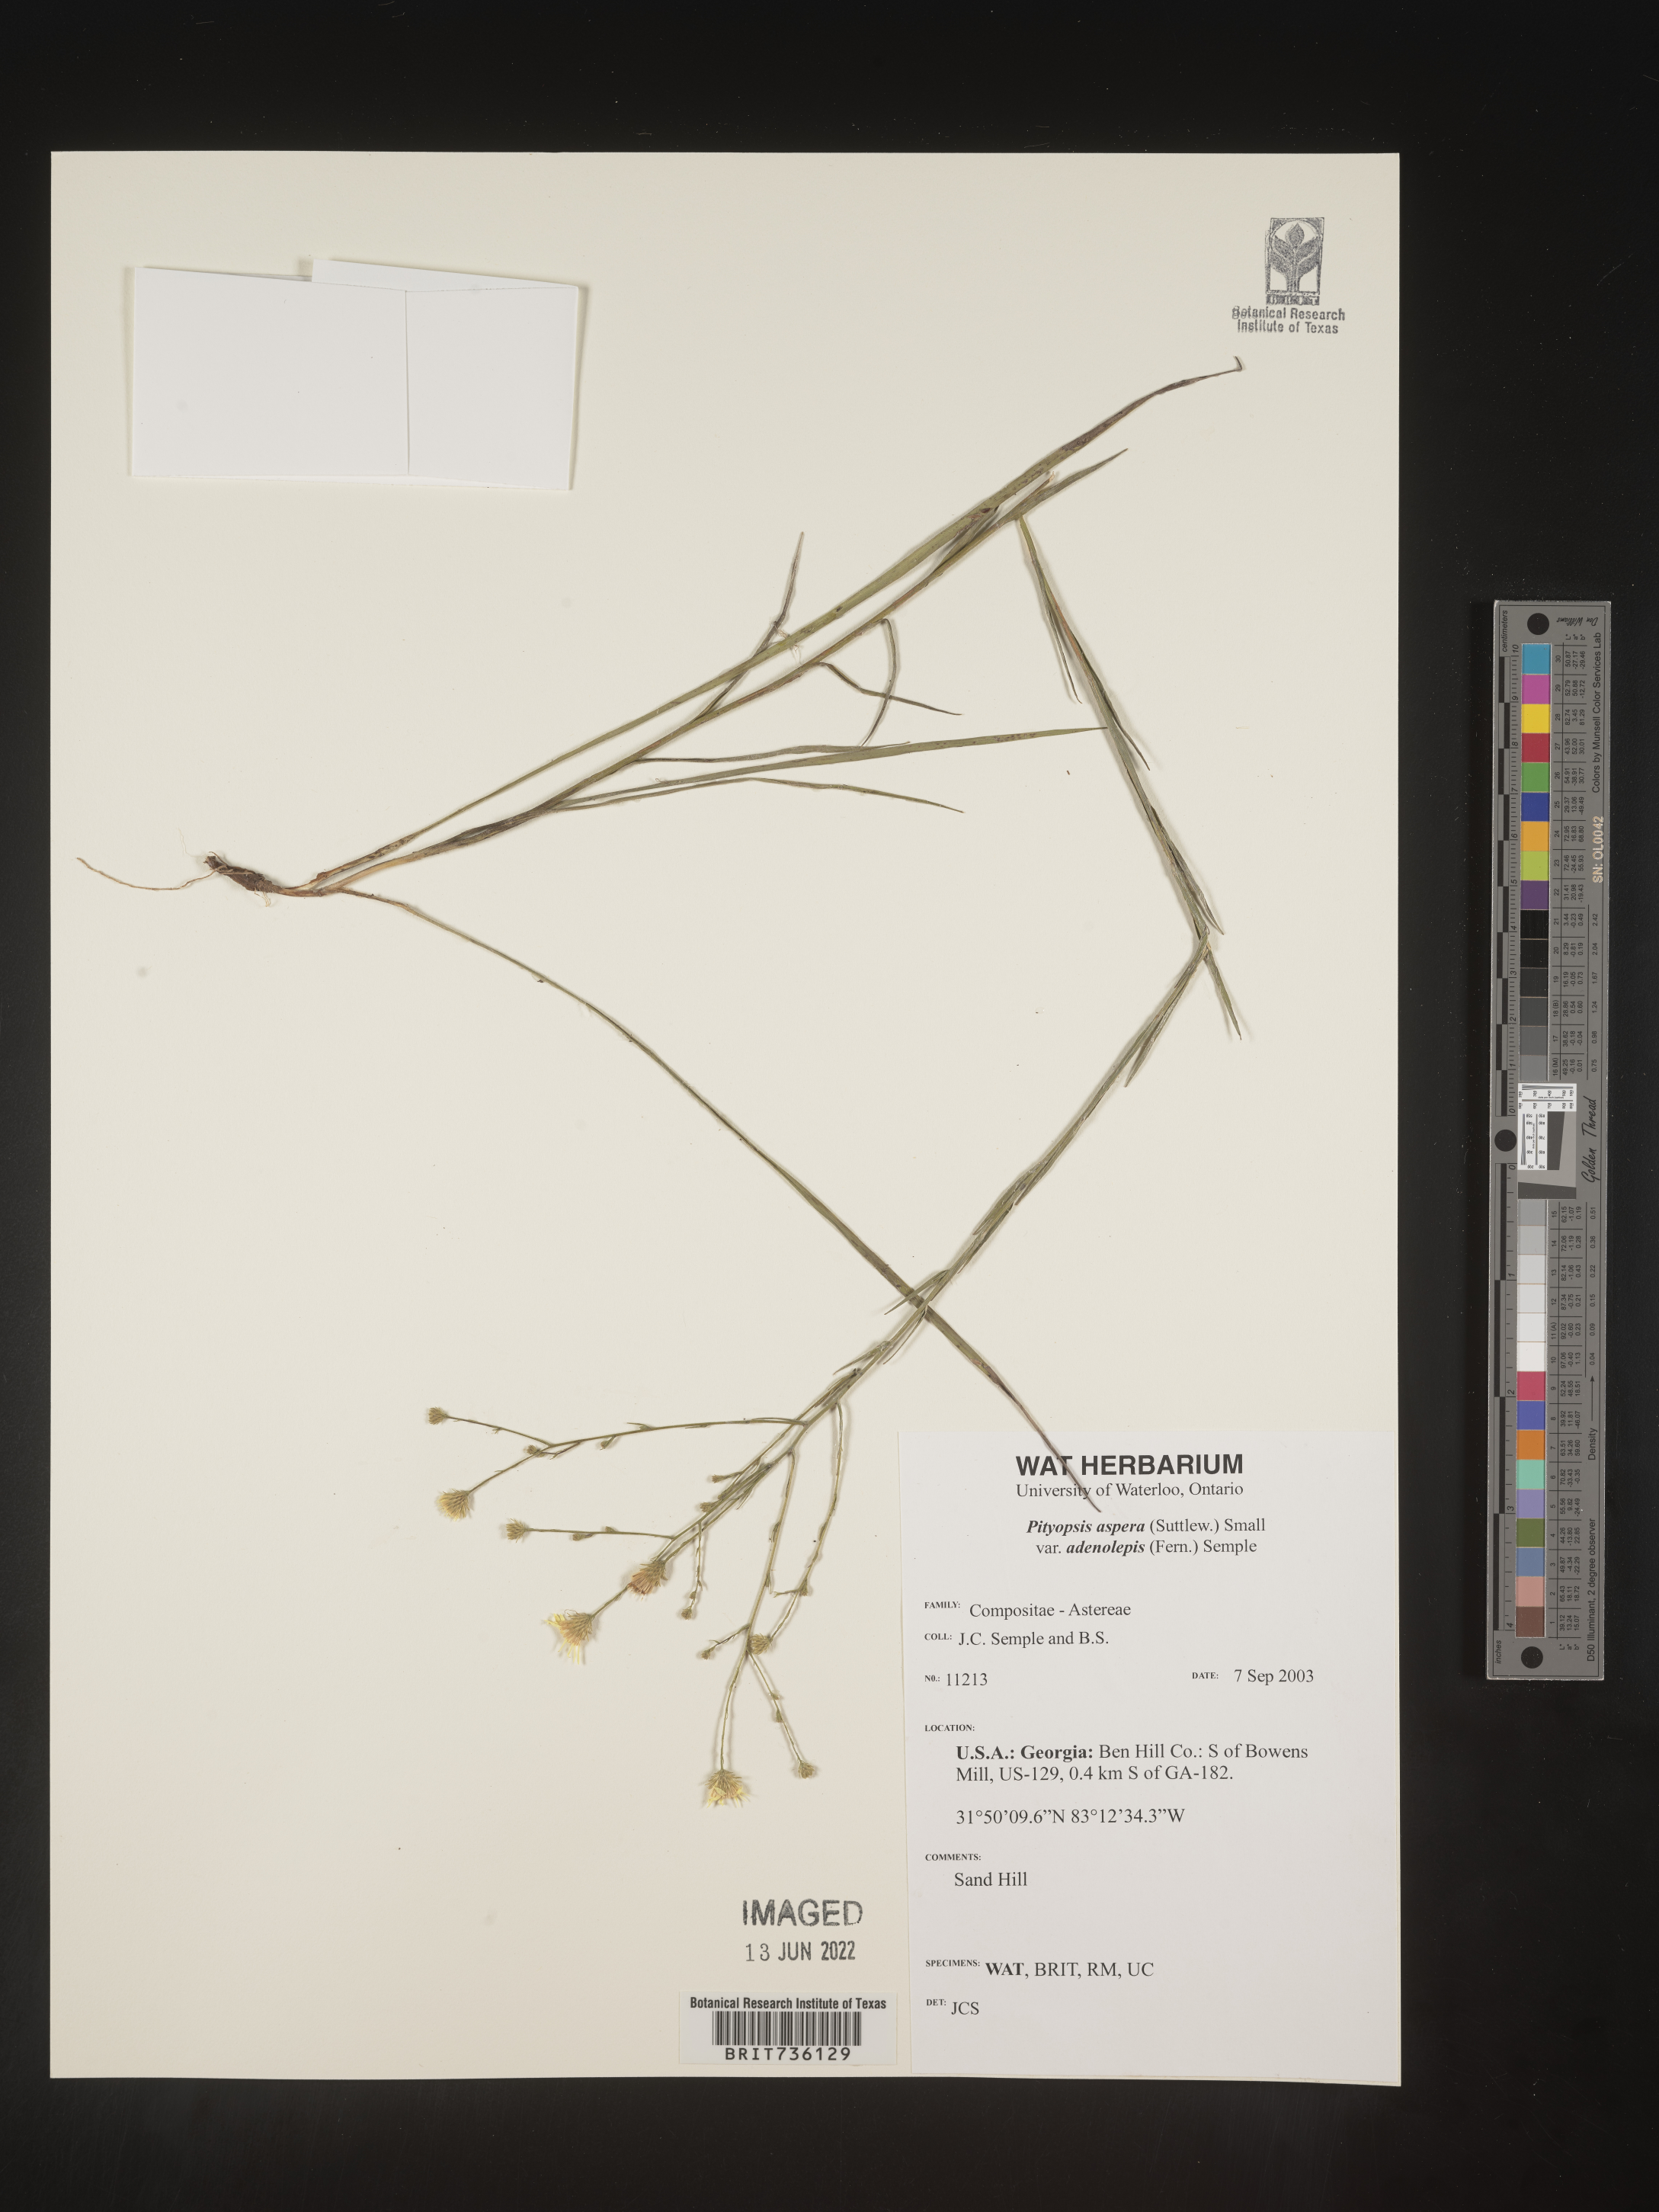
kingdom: Plantae
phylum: Tracheophyta
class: Magnoliopsida
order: Asterales
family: Asteraceae
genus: Pityopsis
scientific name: Pityopsis aspera
